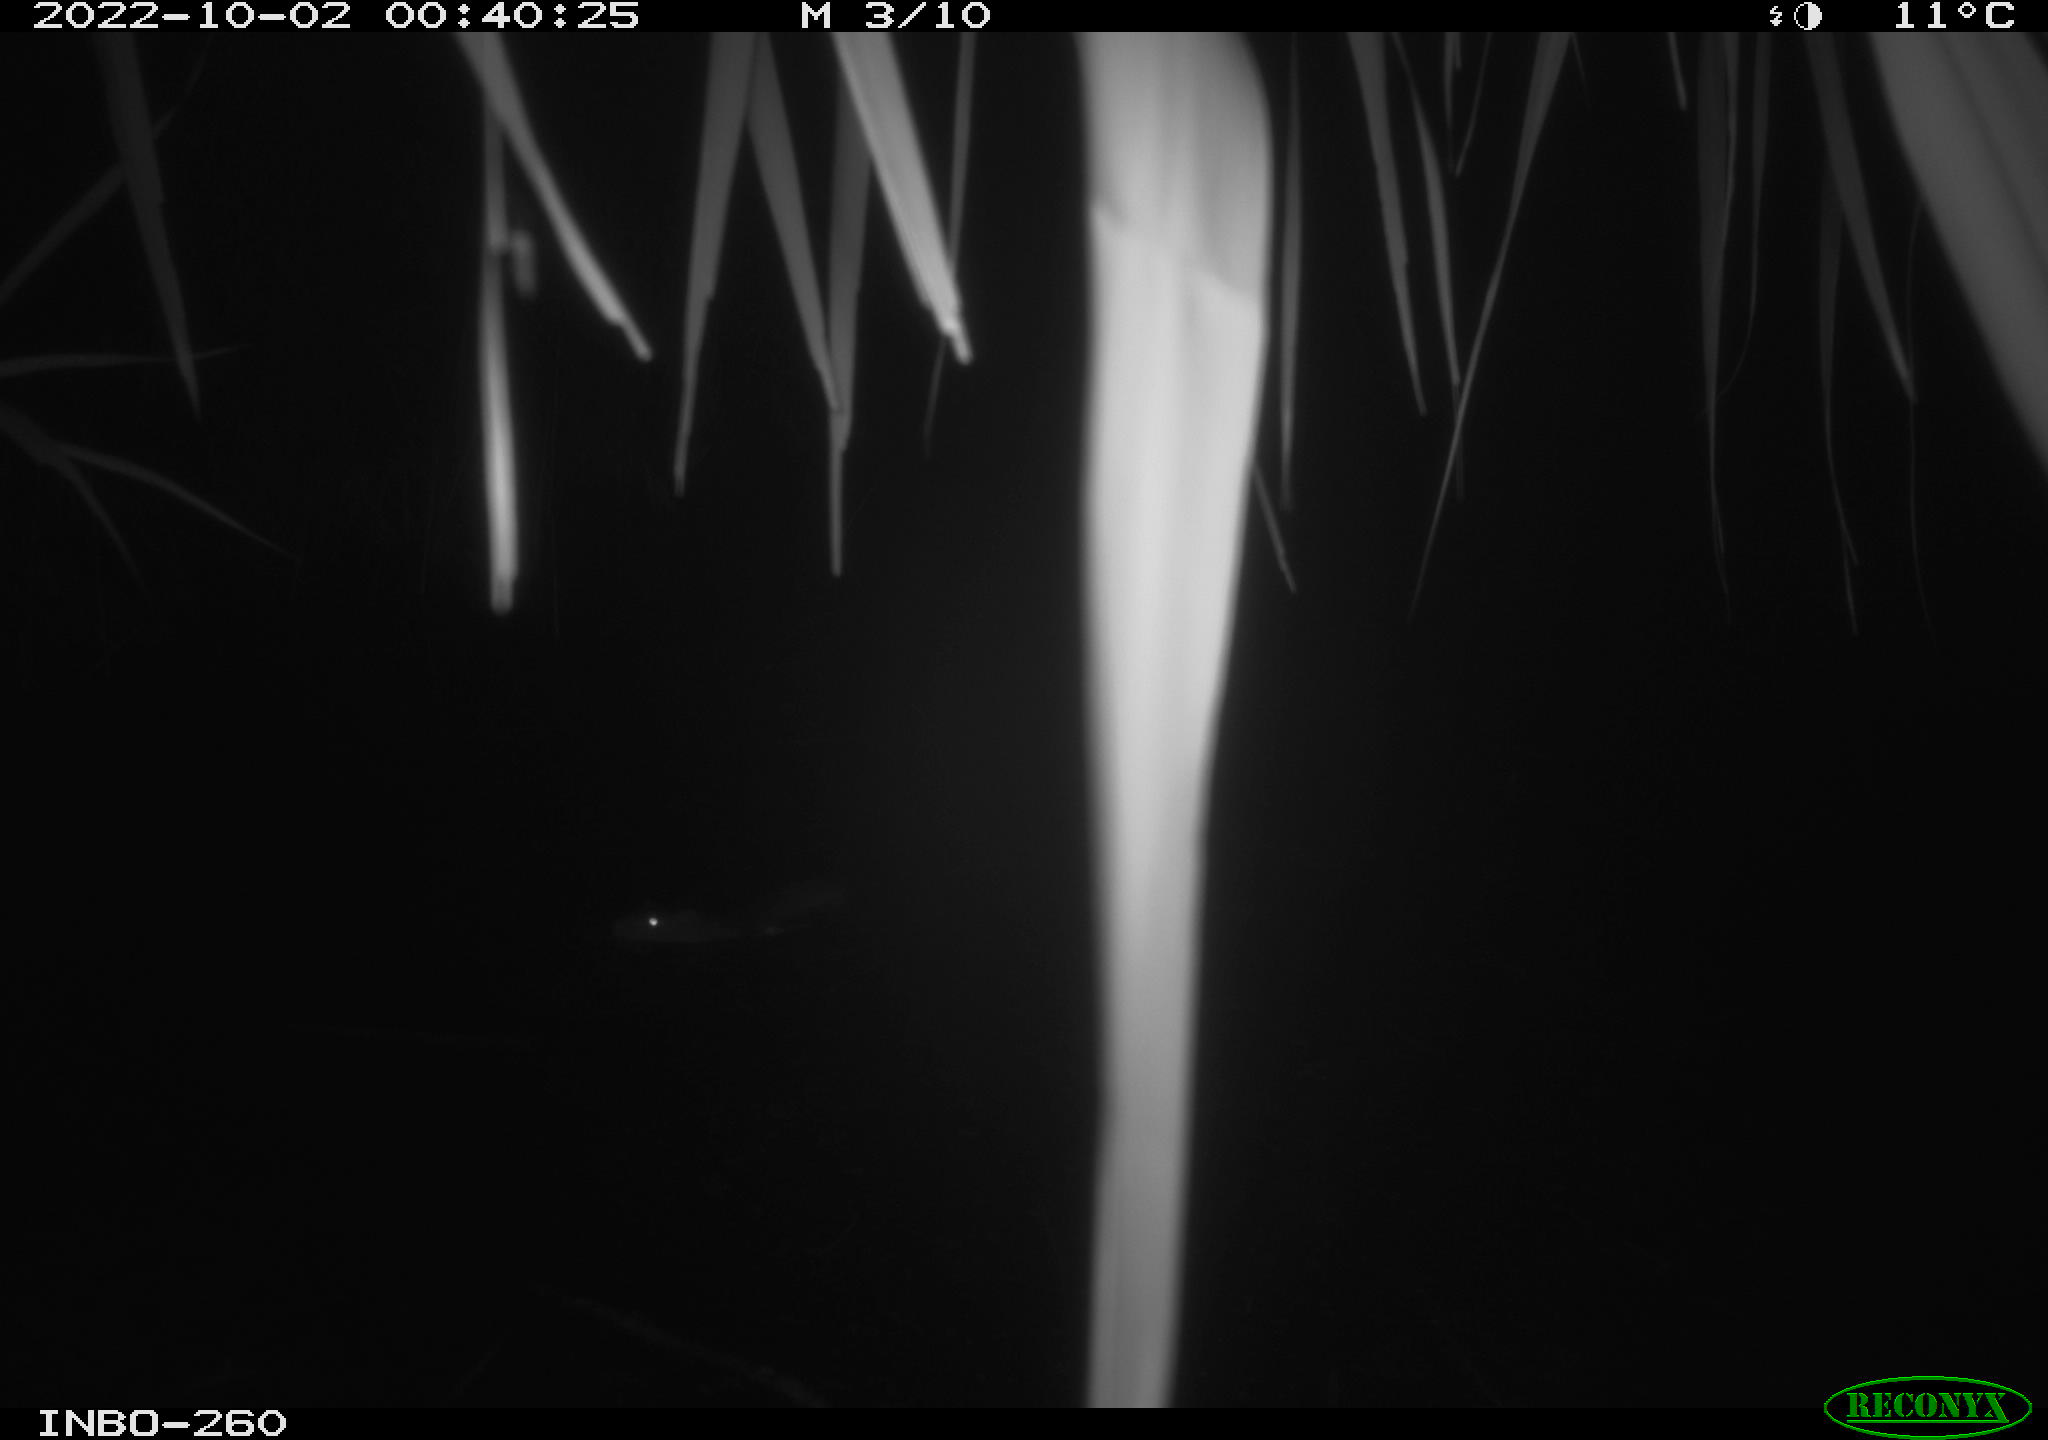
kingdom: Animalia
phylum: Chordata
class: Mammalia
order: Rodentia
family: Muridae
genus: Rattus
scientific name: Rattus norvegicus
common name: Brown rat
